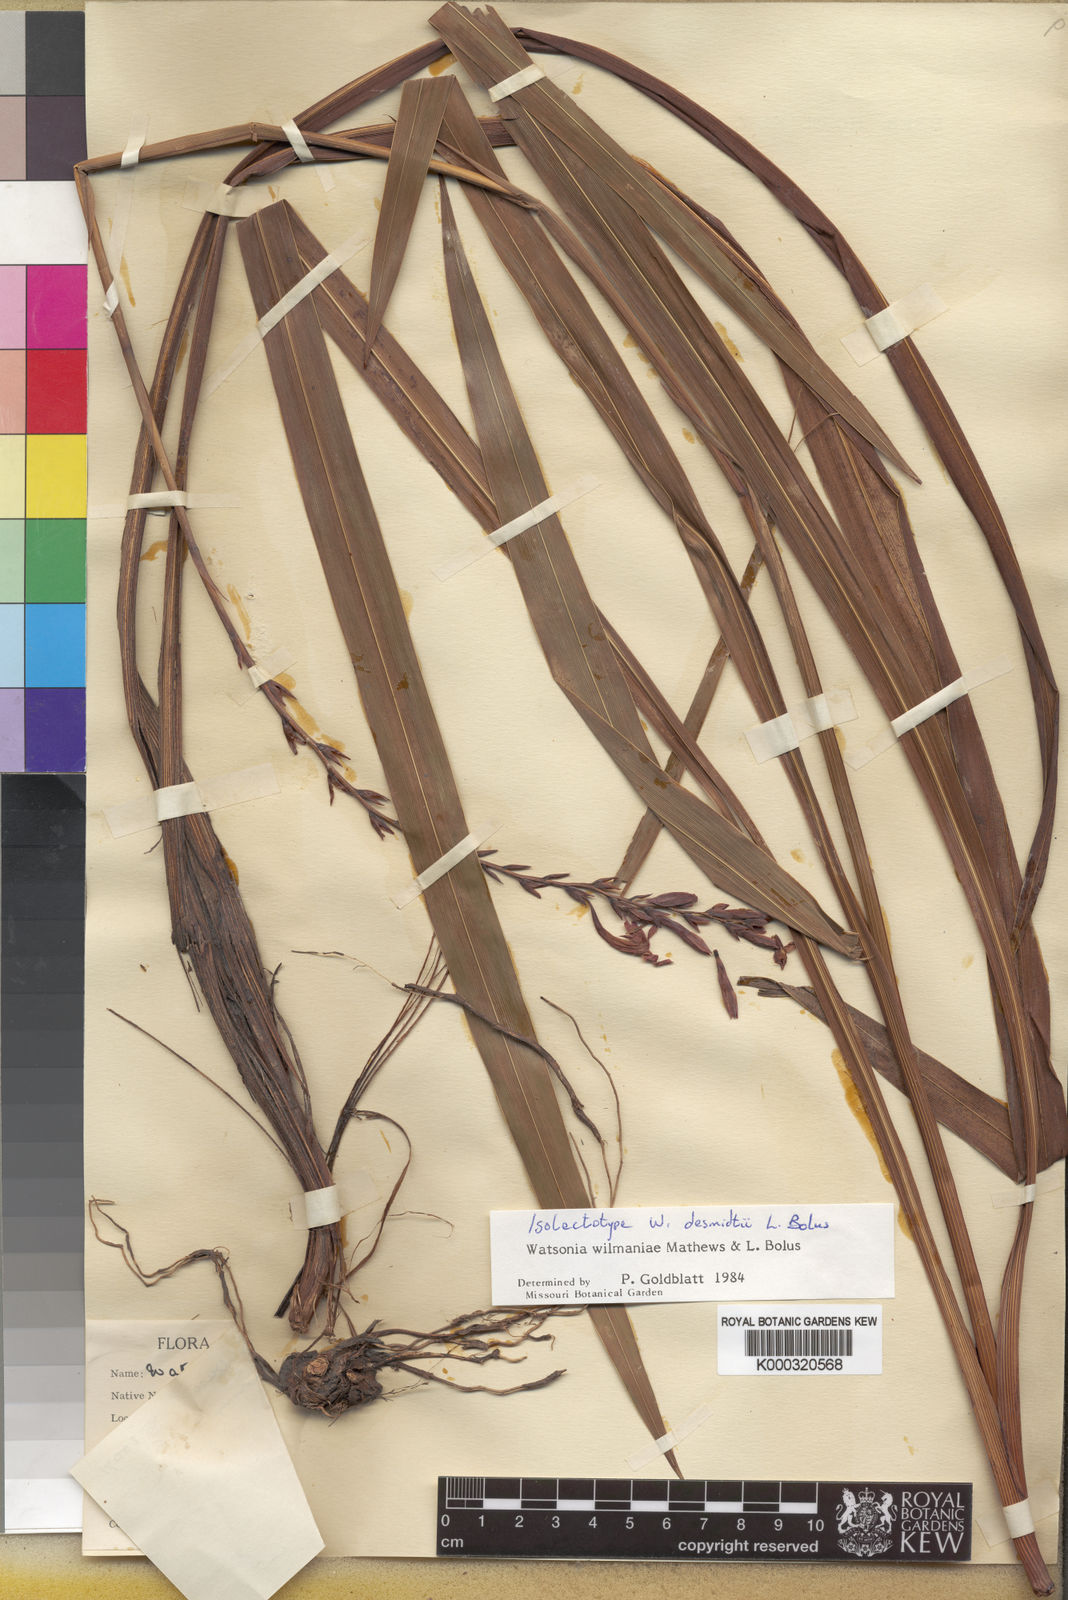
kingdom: Plantae
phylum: Tracheophyta
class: Liliopsida
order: Asparagales
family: Iridaceae
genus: Watsonia
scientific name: Watsonia wilmaniae
